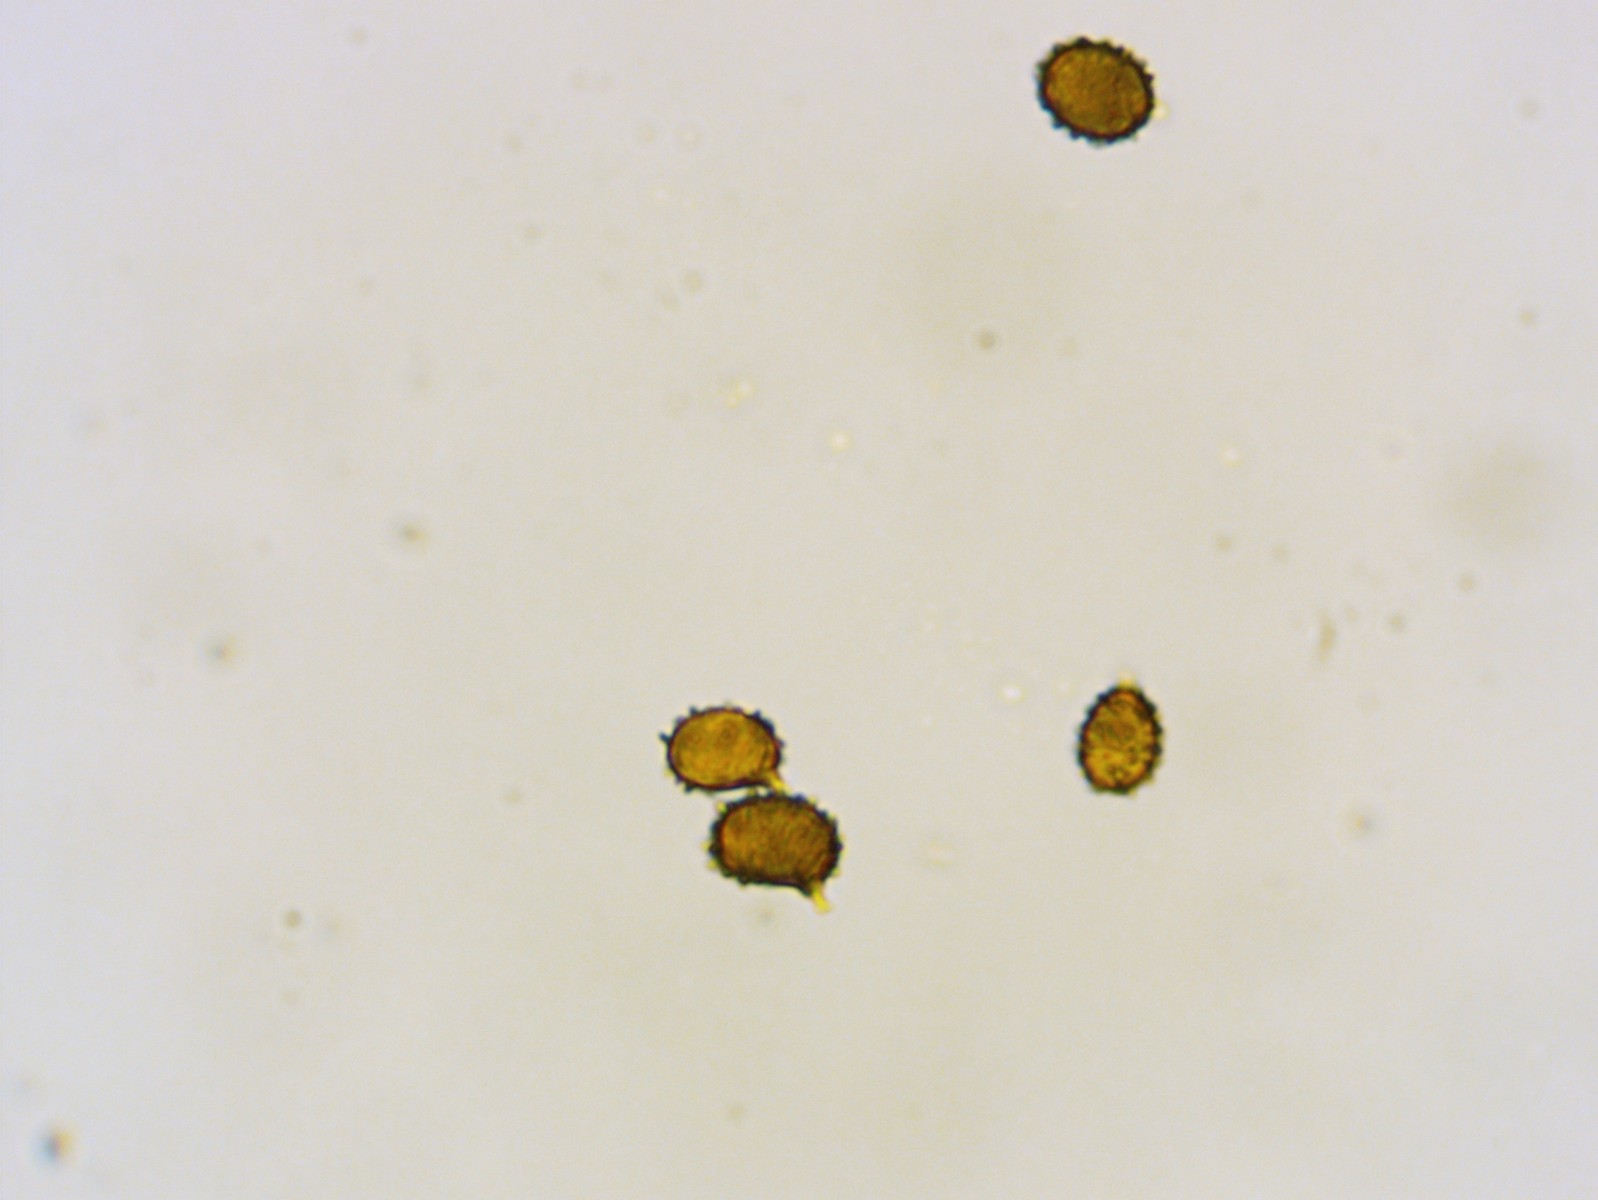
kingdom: Fungi
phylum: Basidiomycota
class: Agaricomycetes
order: Russulales
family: Russulaceae
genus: Russula
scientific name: Russula silvestris
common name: mellemstor gift-skørhat
